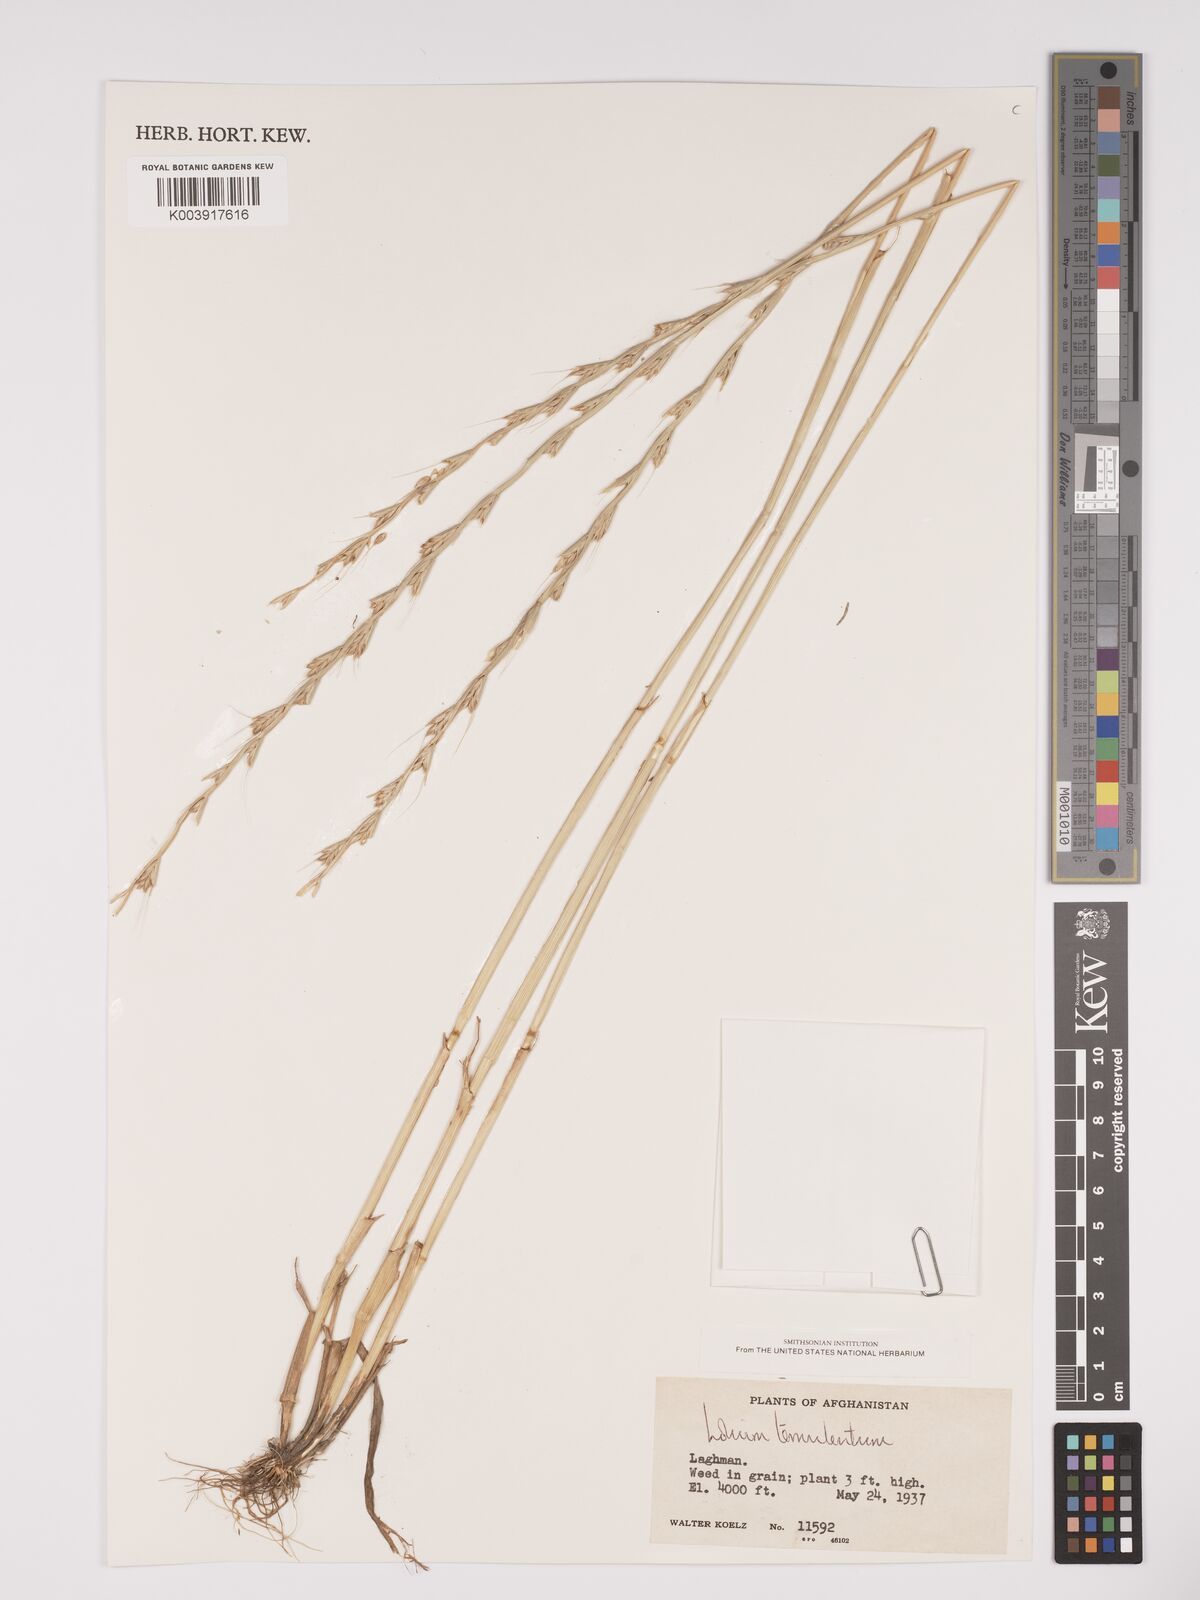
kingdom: Plantae
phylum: Tracheophyta
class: Liliopsida
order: Poales
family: Poaceae
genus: Lolium
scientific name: Lolium temulentum
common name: Darnel
